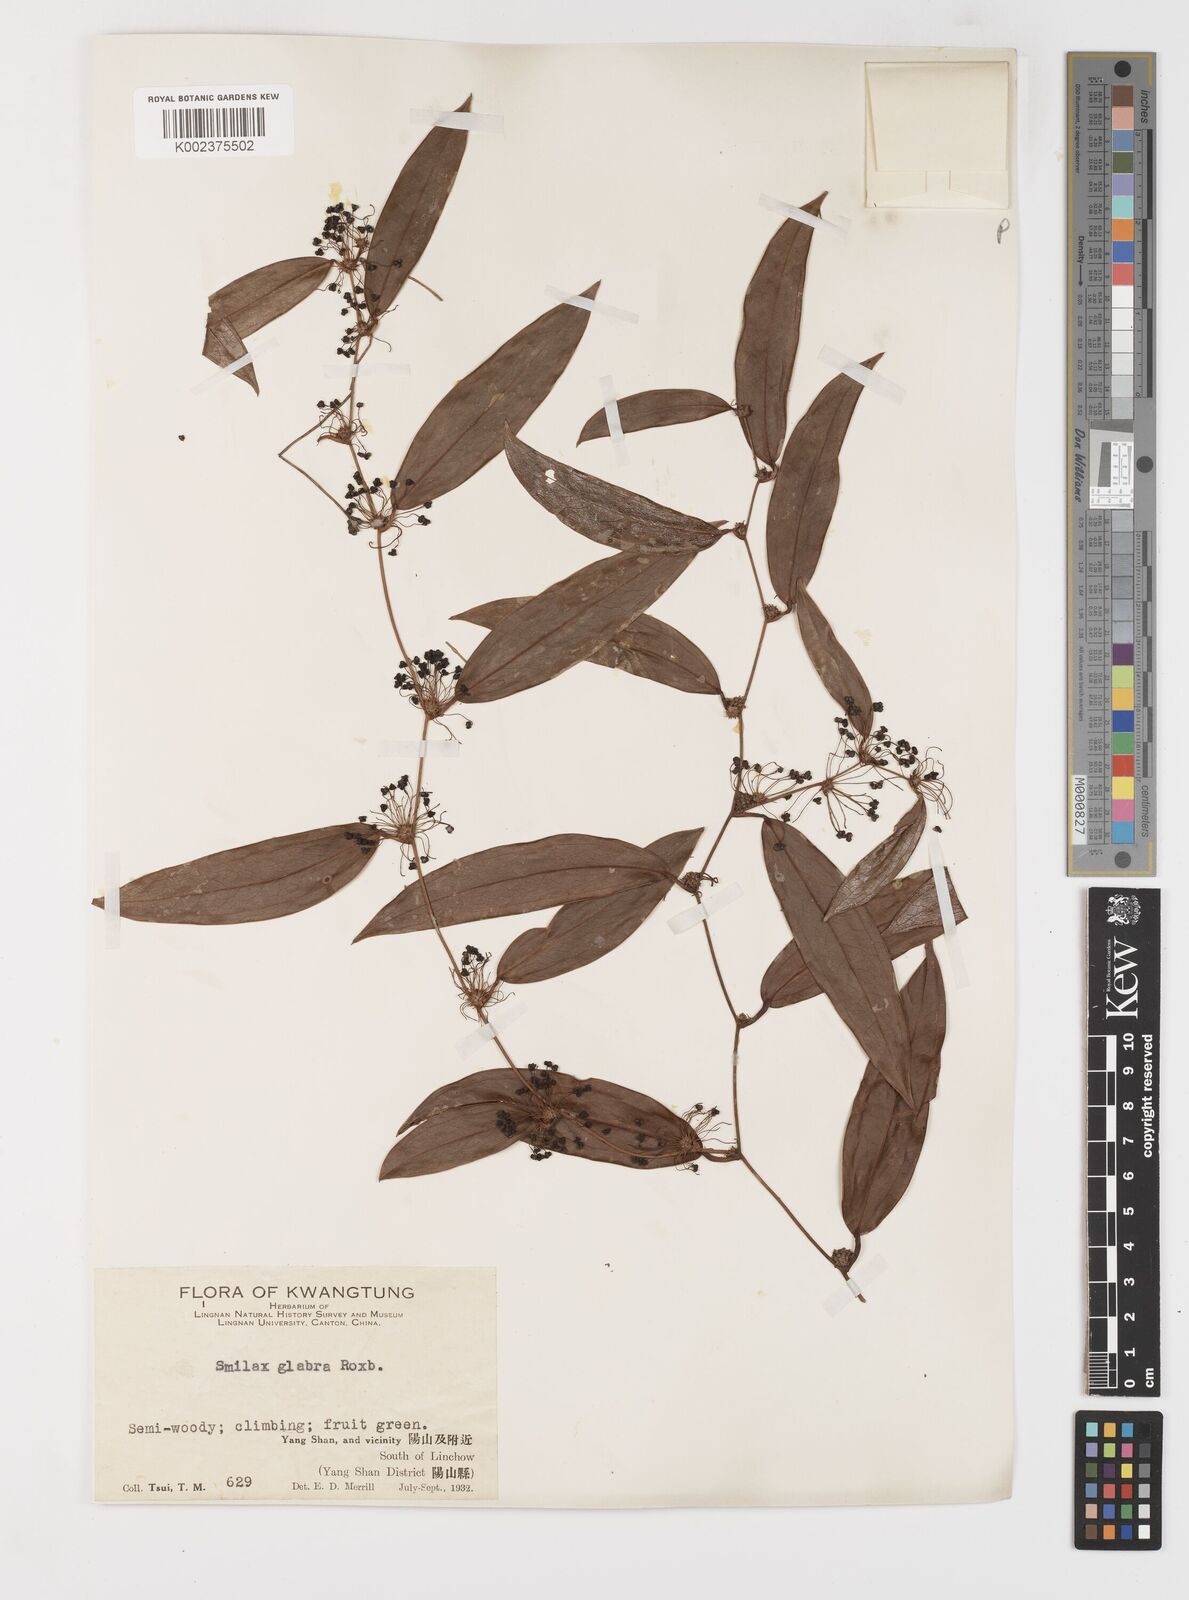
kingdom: Plantae
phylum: Tracheophyta
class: Liliopsida
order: Liliales
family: Smilacaceae
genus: Smilax
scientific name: Smilax glabra
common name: Chinese smilax
